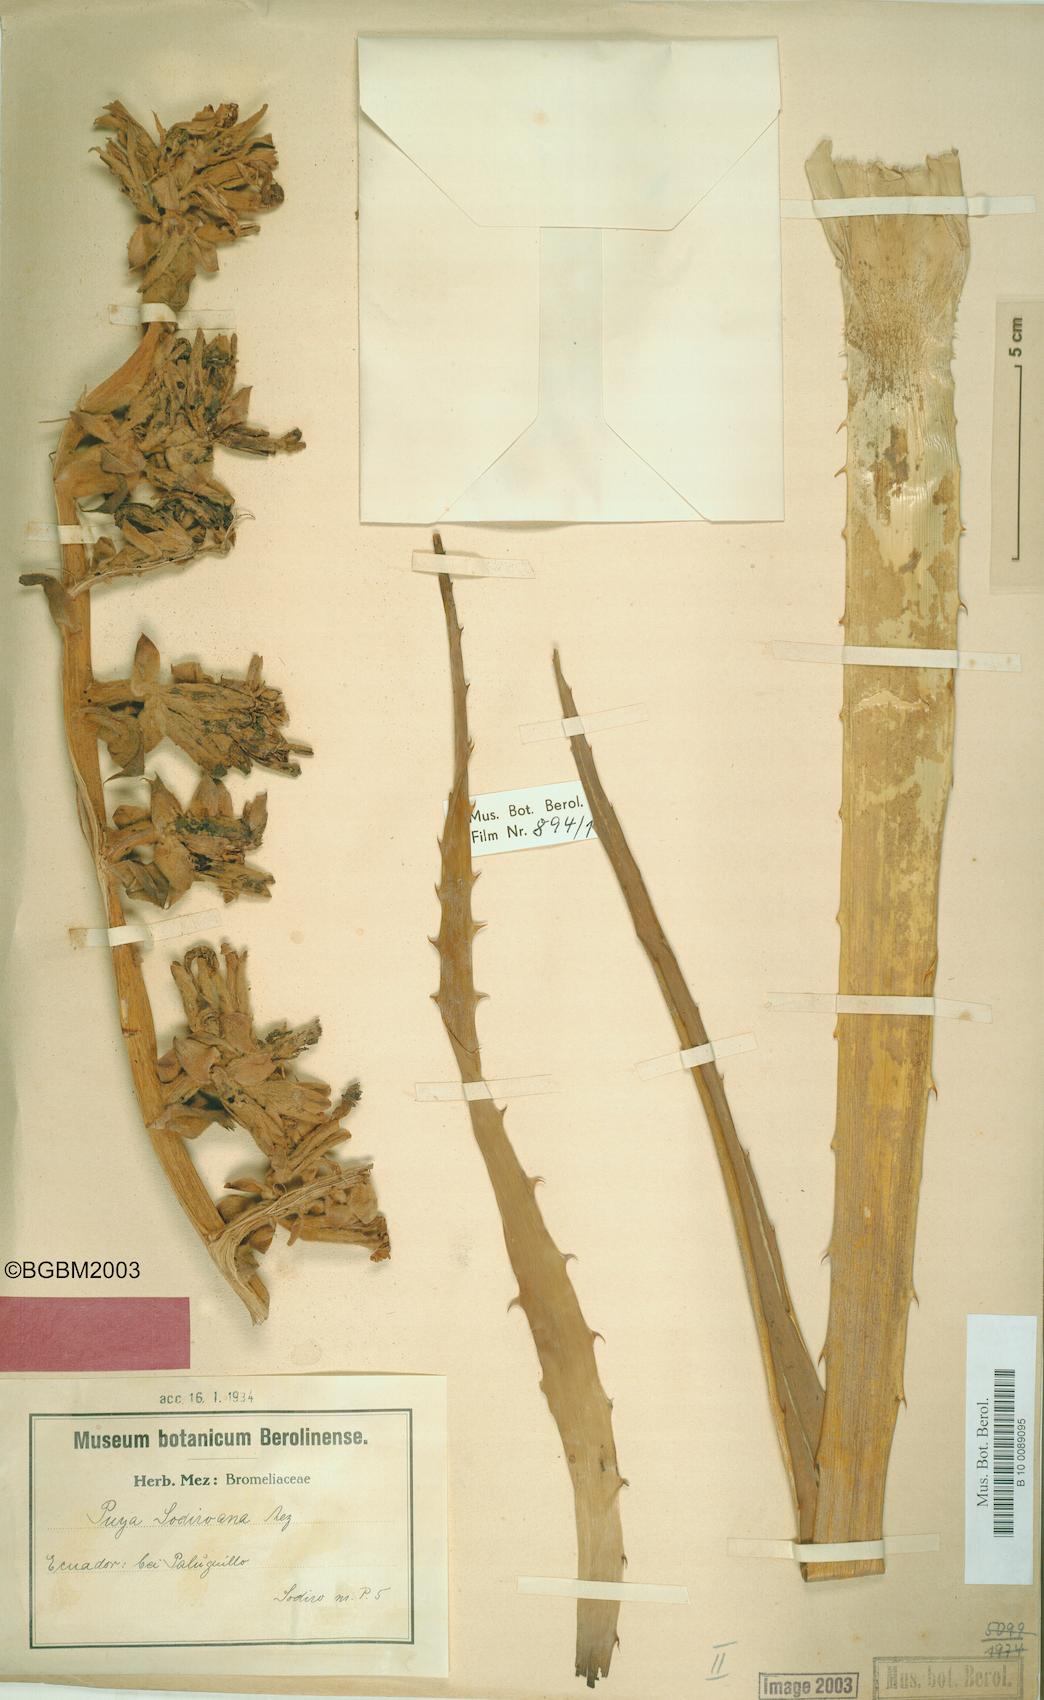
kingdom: Plantae
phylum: Tracheophyta
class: Liliopsida
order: Poales
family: Bromeliaceae
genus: Puya
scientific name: Puya sodiroana
